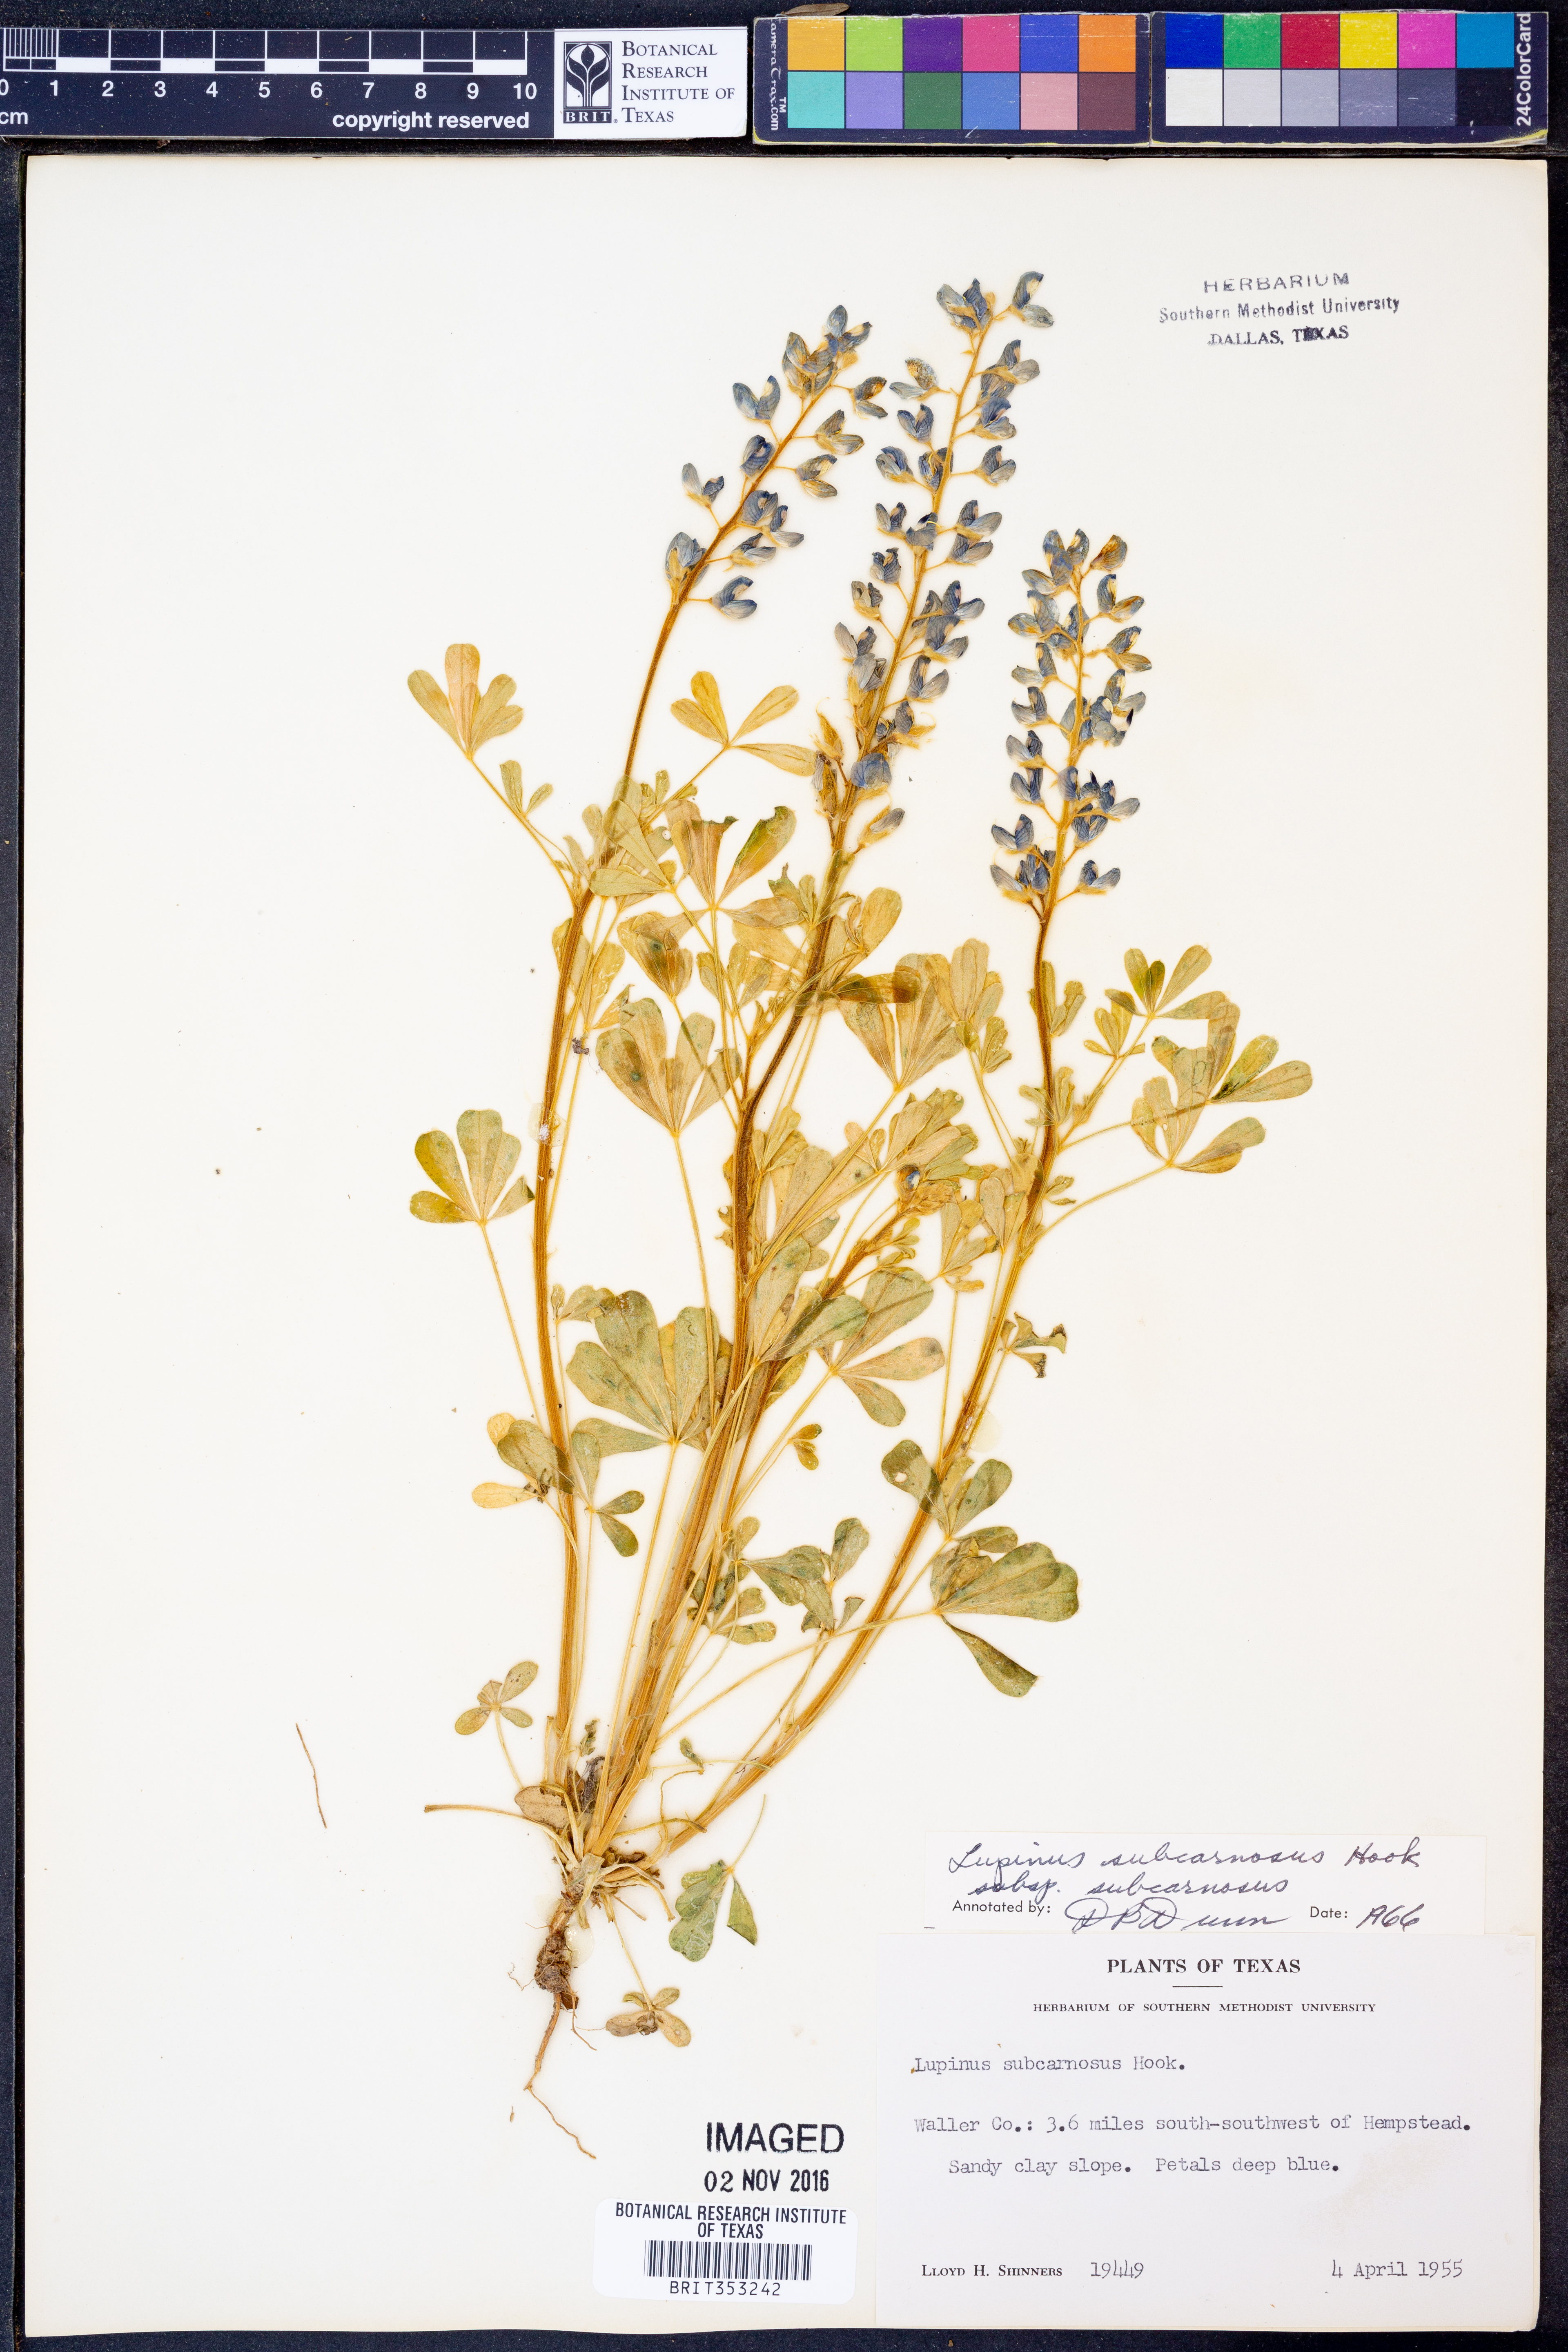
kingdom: Plantae
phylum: Tracheophyta
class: Magnoliopsida
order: Fabales
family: Fabaceae
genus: Lupinus
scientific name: Lupinus subcarnosus
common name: Texas bluebonnet
